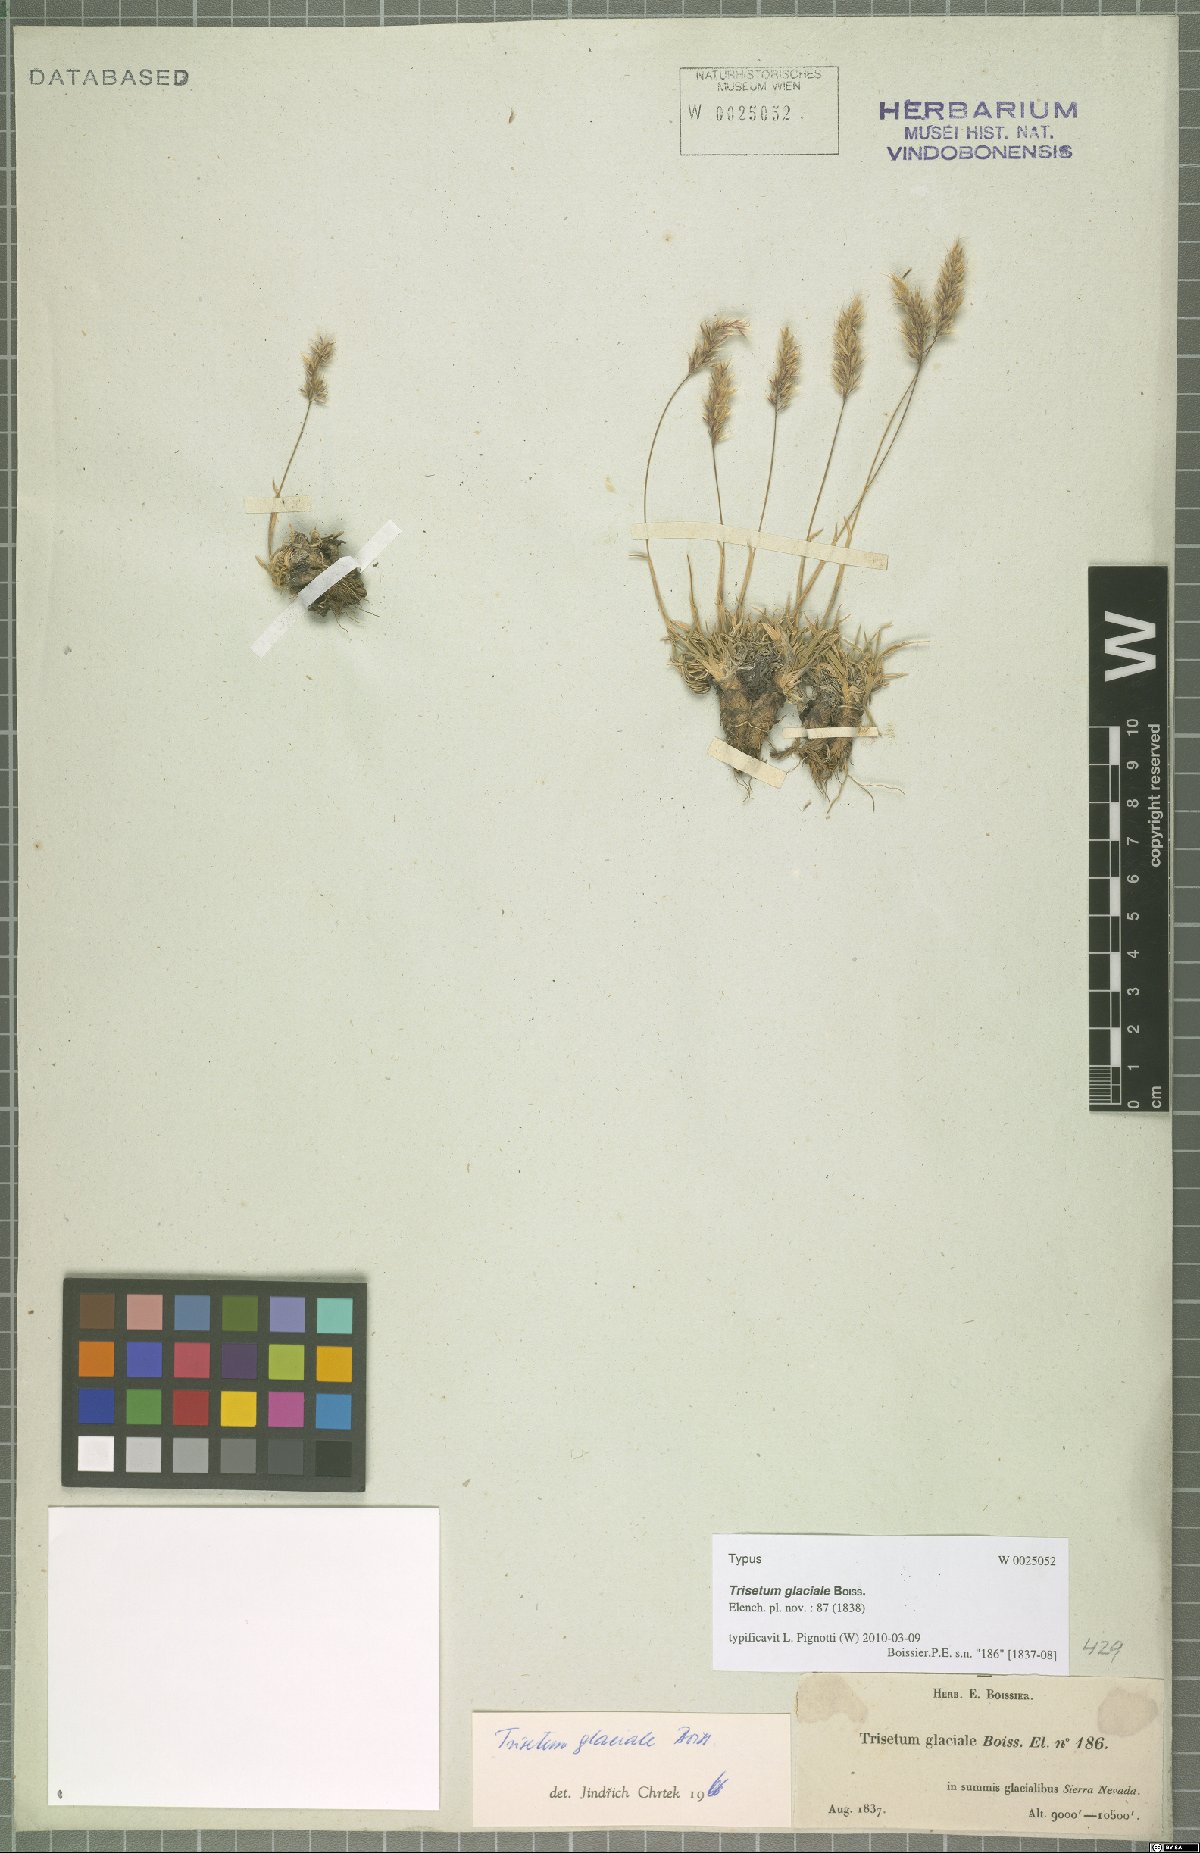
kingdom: Plantae
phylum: Tracheophyta
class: Liliopsida
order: Poales
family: Poaceae
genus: Acrospelion
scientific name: Acrospelion glaciale
